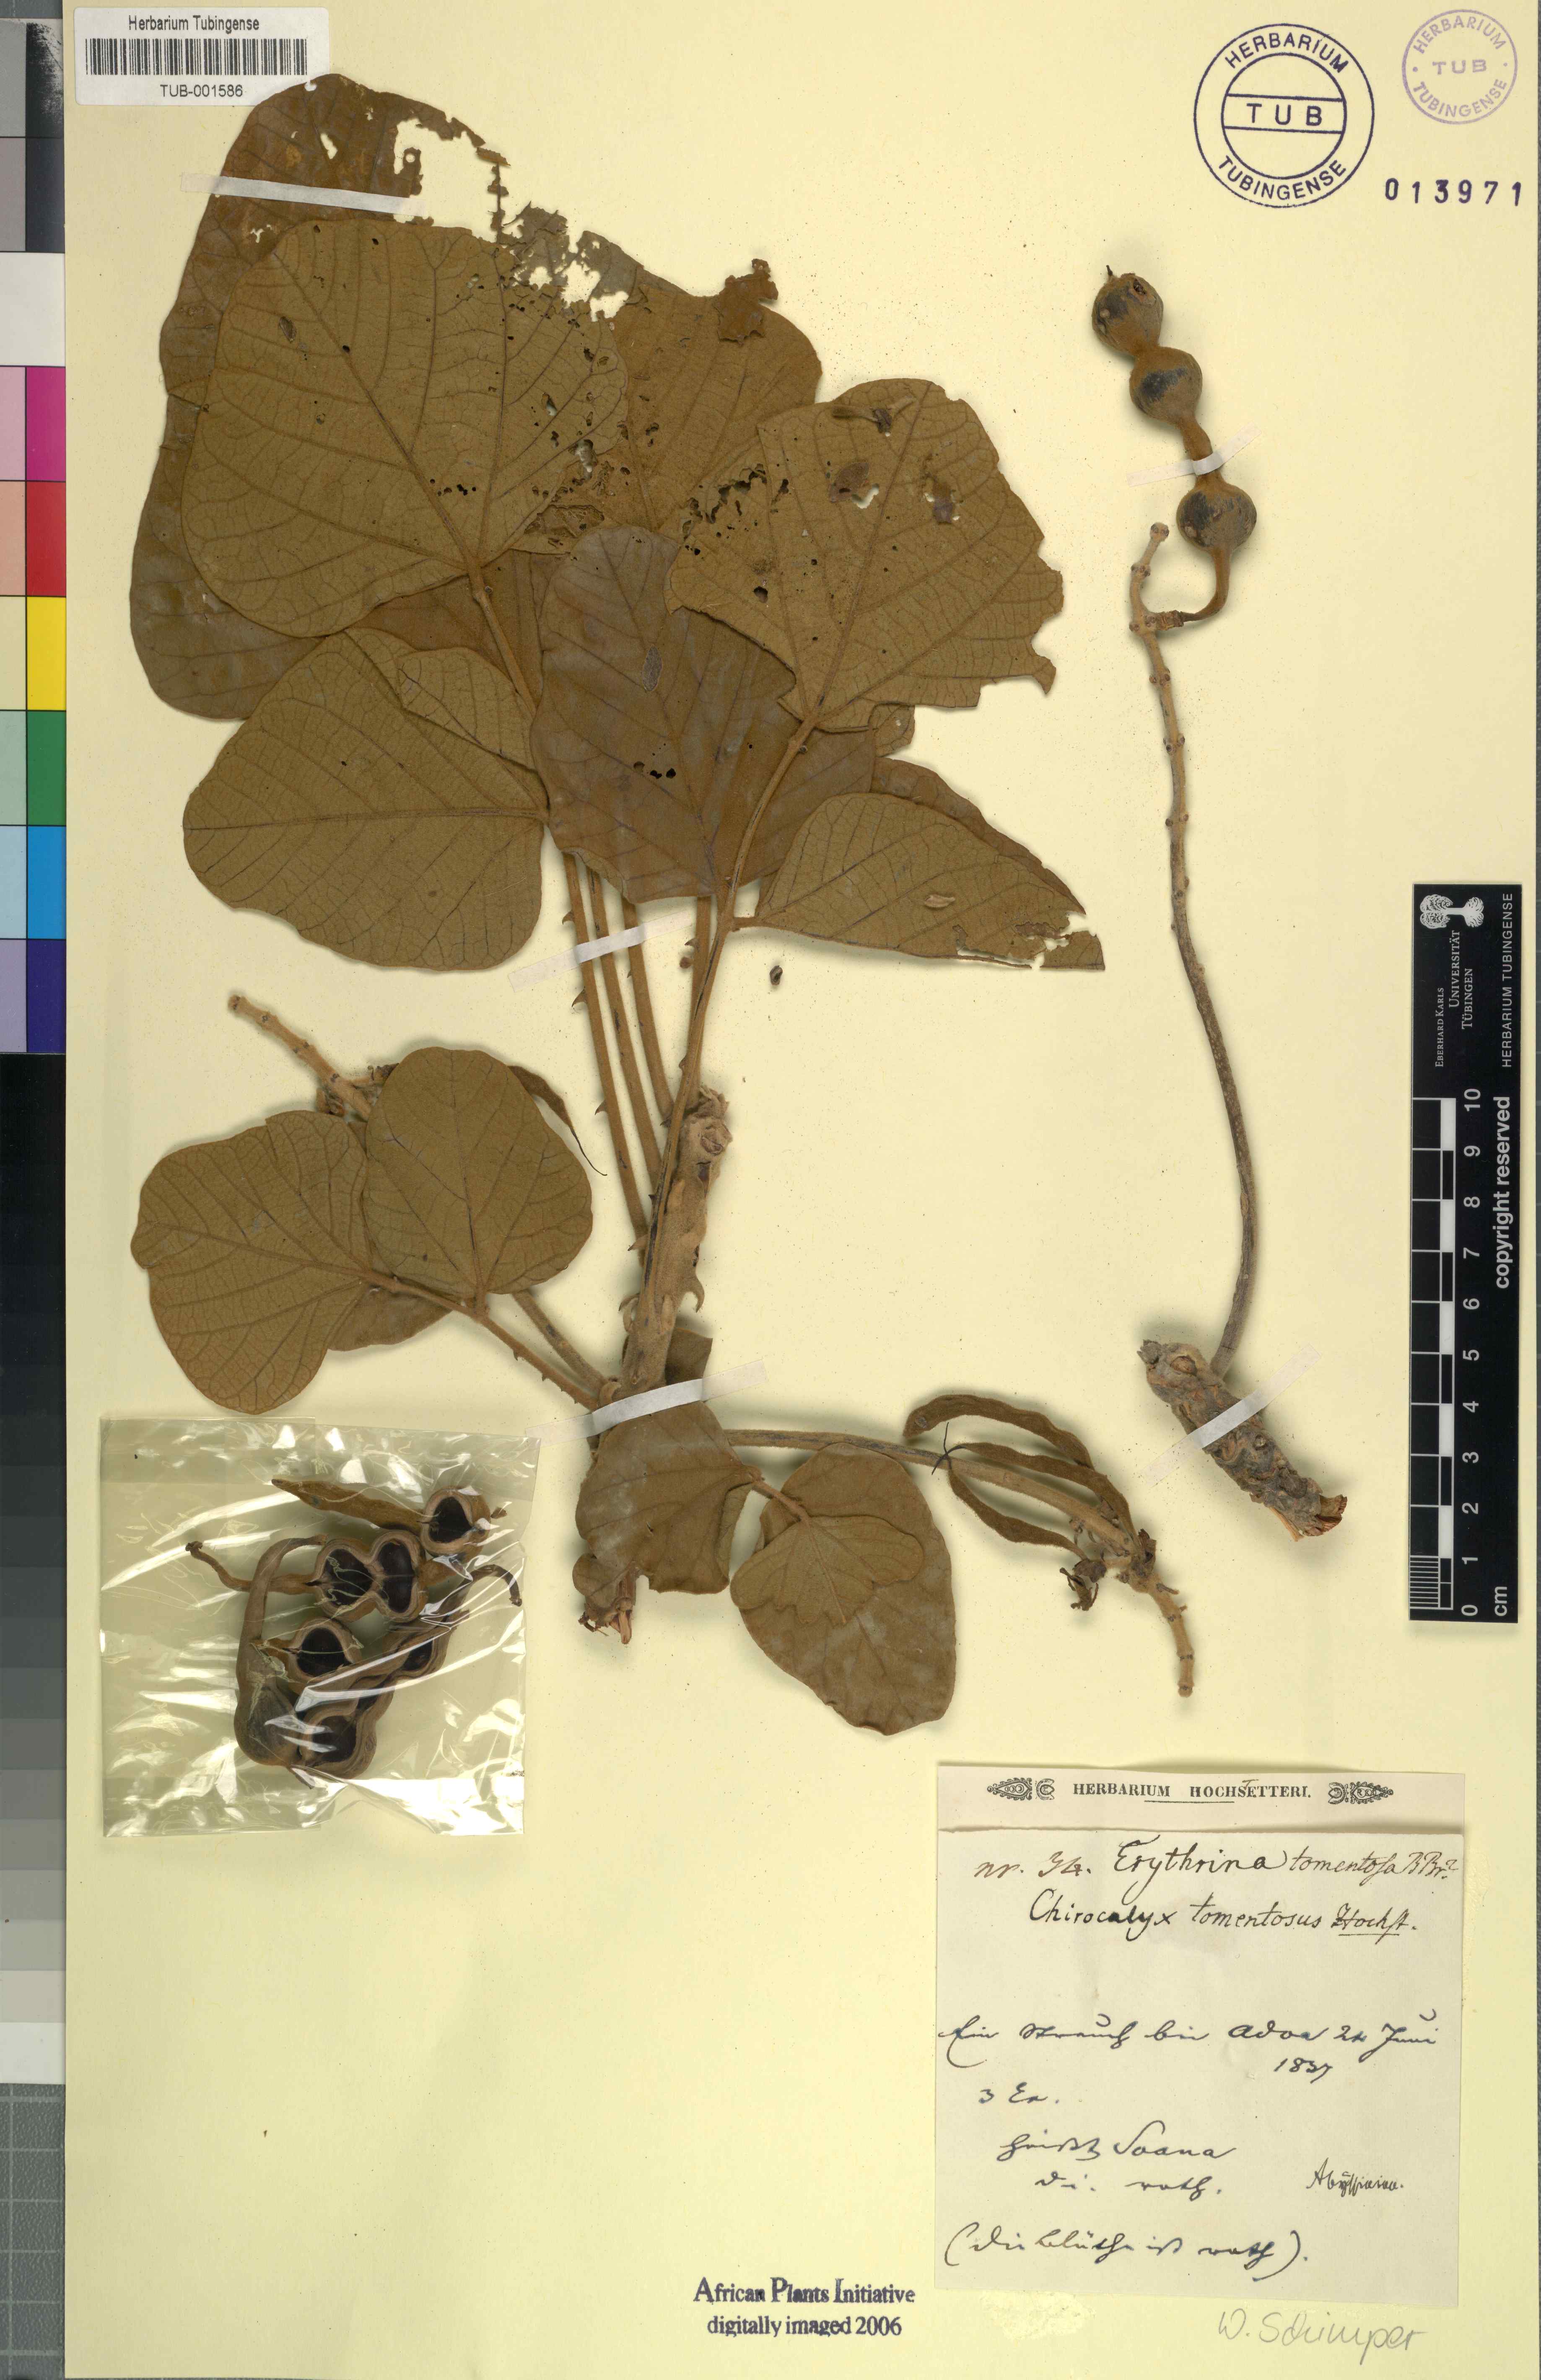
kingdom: Plantae
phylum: Tracheophyta
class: Magnoliopsida
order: Fabales
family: Fabaceae
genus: Erythrina
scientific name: Erythrina abyssinica
